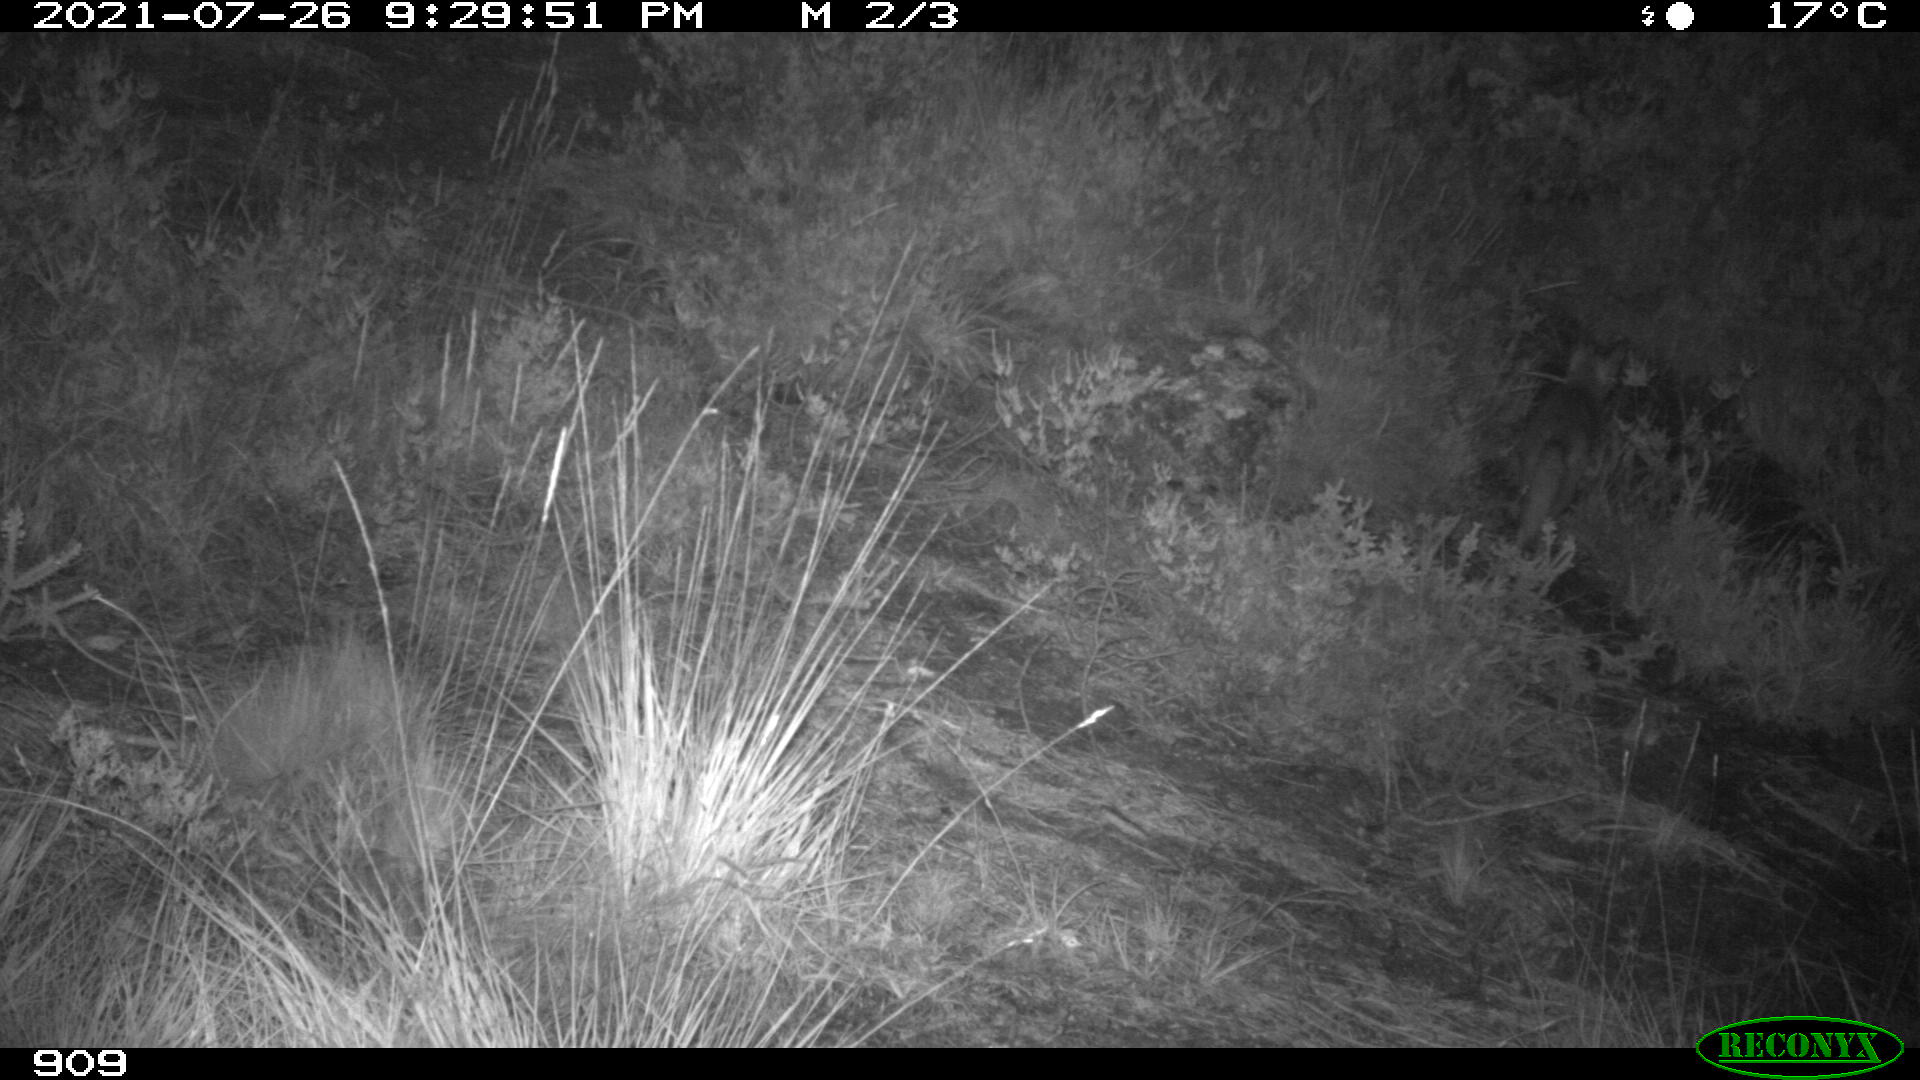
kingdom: Animalia
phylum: Chordata
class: Mammalia
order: Carnivora
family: Canidae
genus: Vulpes
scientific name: Vulpes vulpes
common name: Red fox
